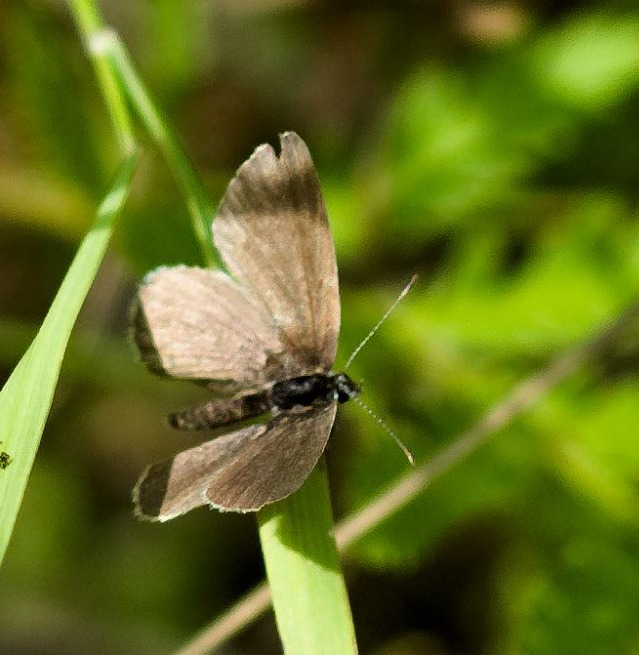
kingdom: Animalia
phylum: Arthropoda
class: Insecta
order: Lepidoptera
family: Lycaenidae
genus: Cupido
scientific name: Cupido minimus
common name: Dværgblåfugl
